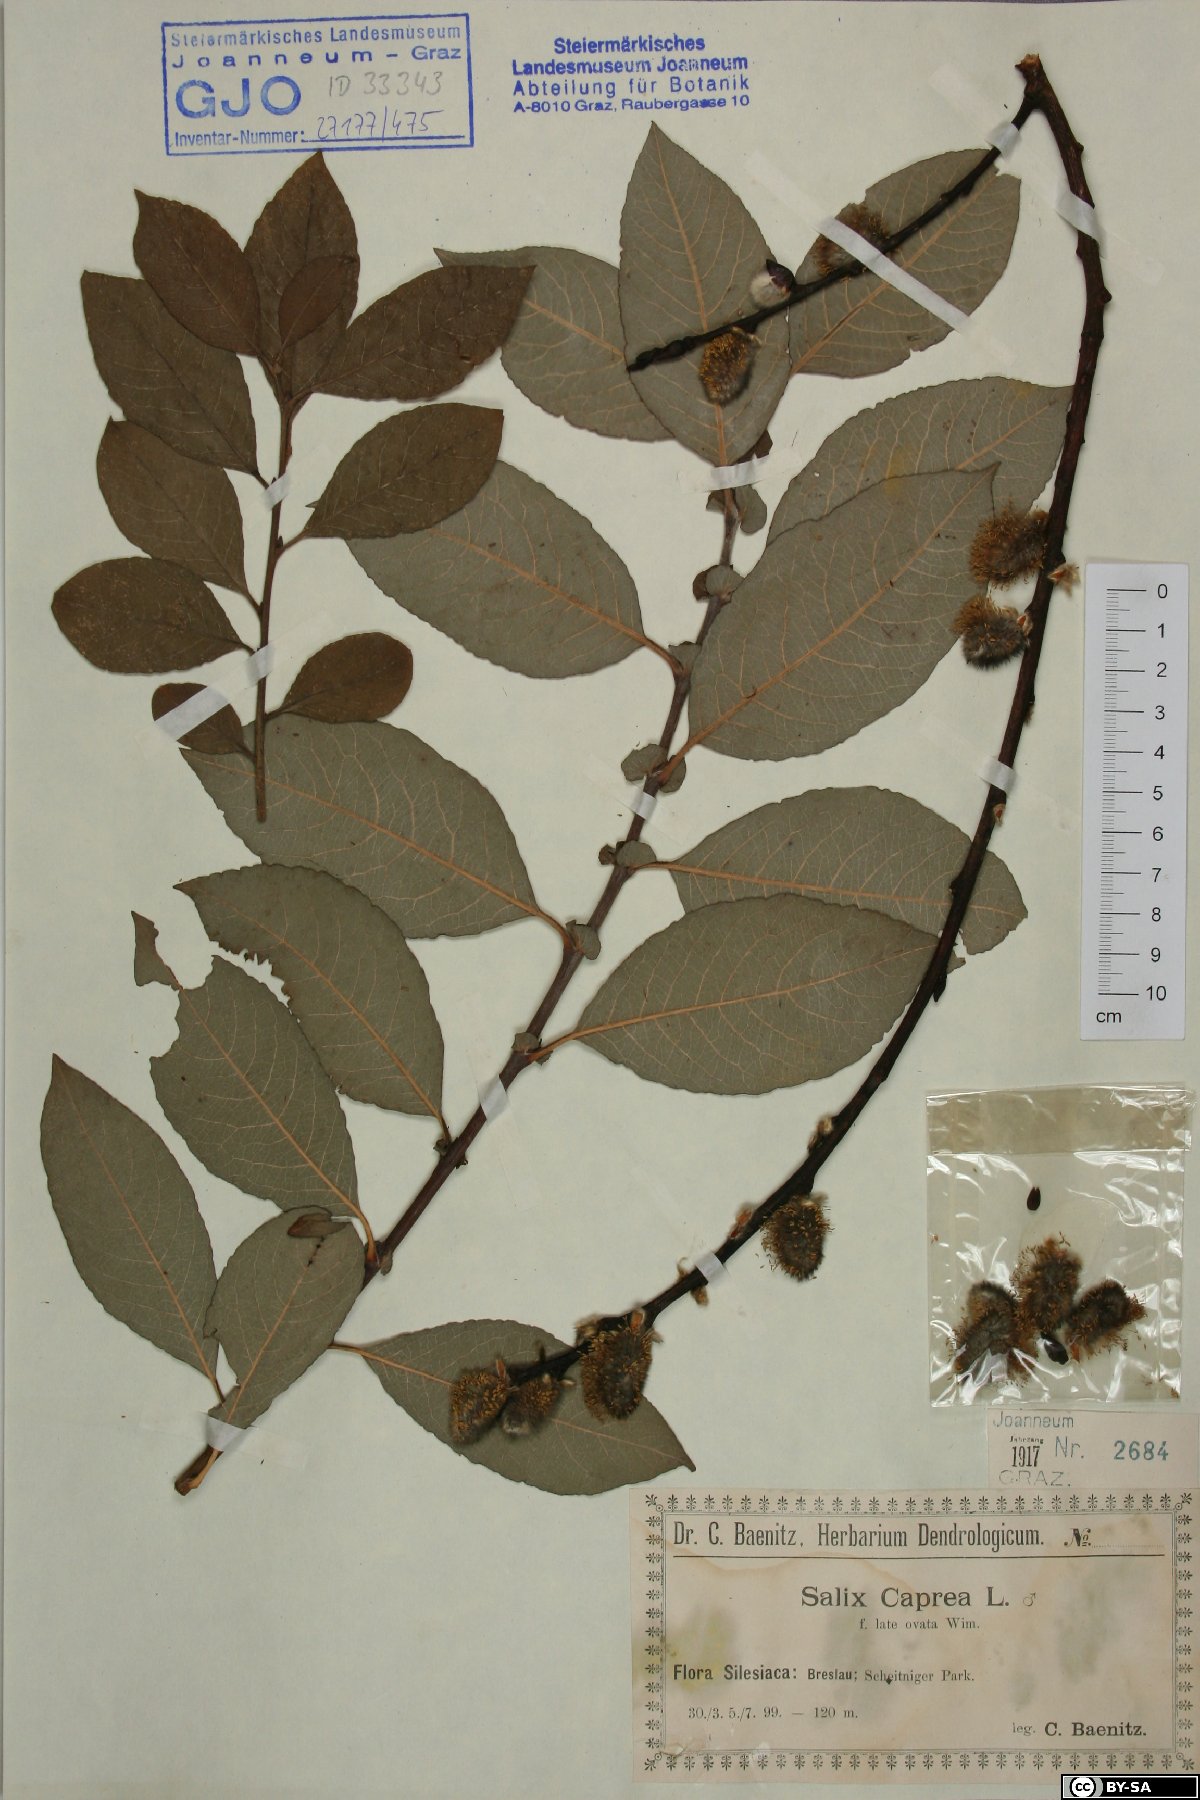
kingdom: Plantae
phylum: Tracheophyta
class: Magnoliopsida
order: Malpighiales
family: Salicaceae
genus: Salix
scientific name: Salix caprea
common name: Goat willow
